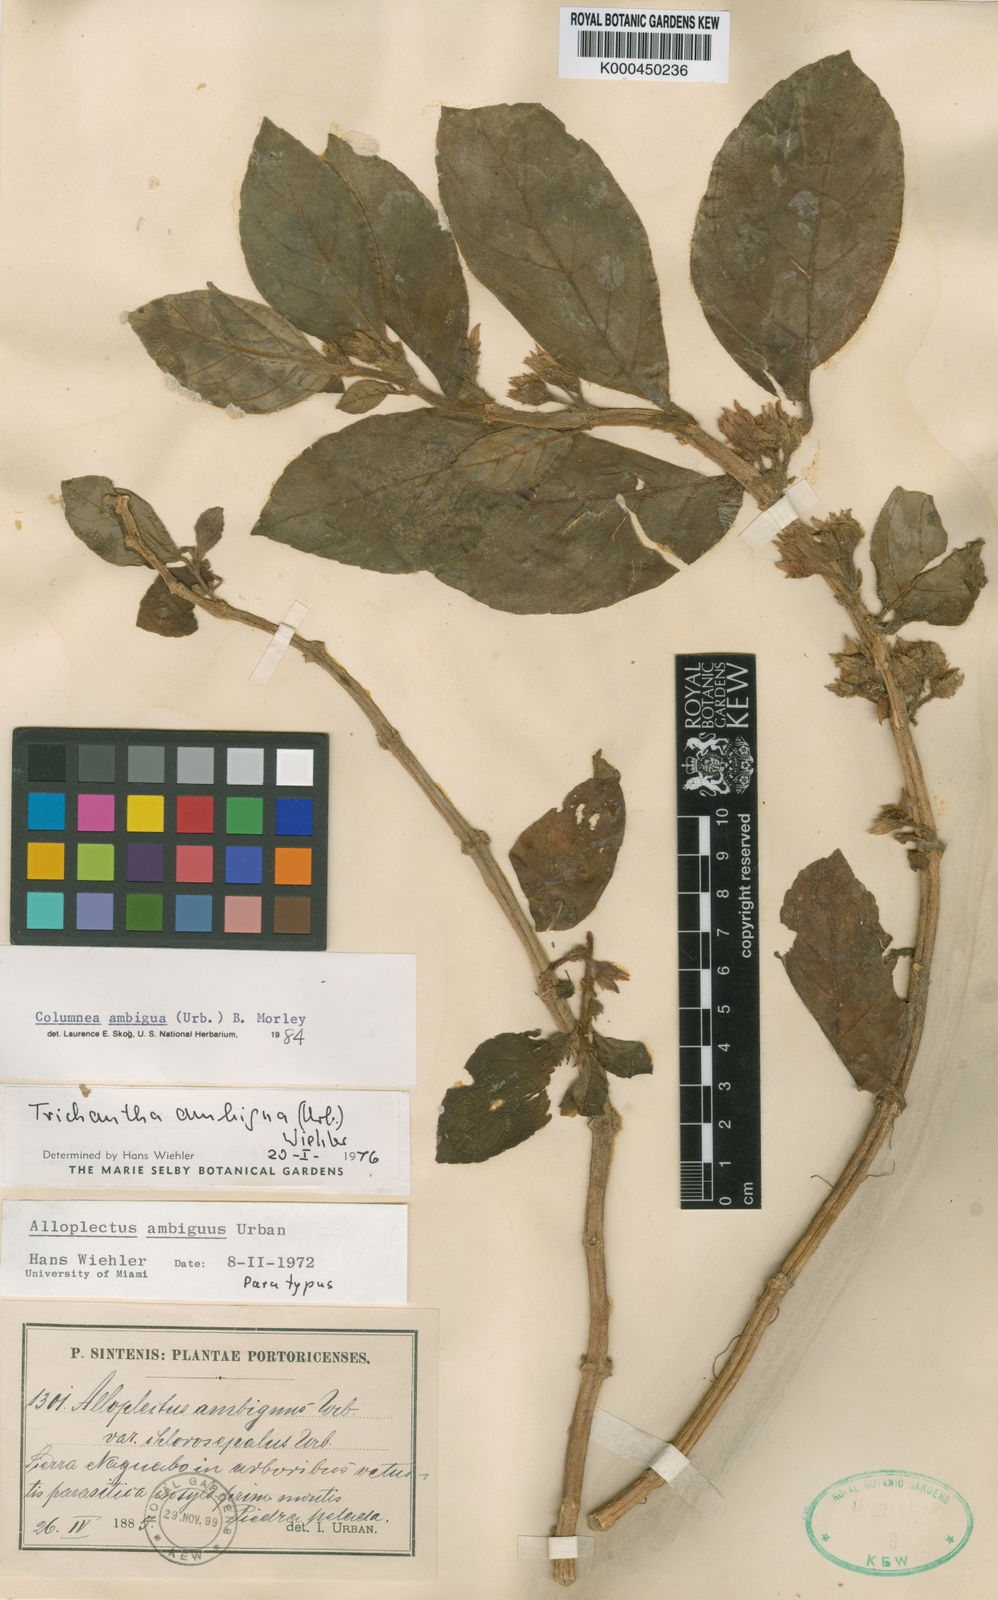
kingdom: Plantae
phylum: Tracheophyta
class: Magnoliopsida
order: Lamiales
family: Gesneriaceae
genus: Columnea
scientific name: Columnea ambigua
